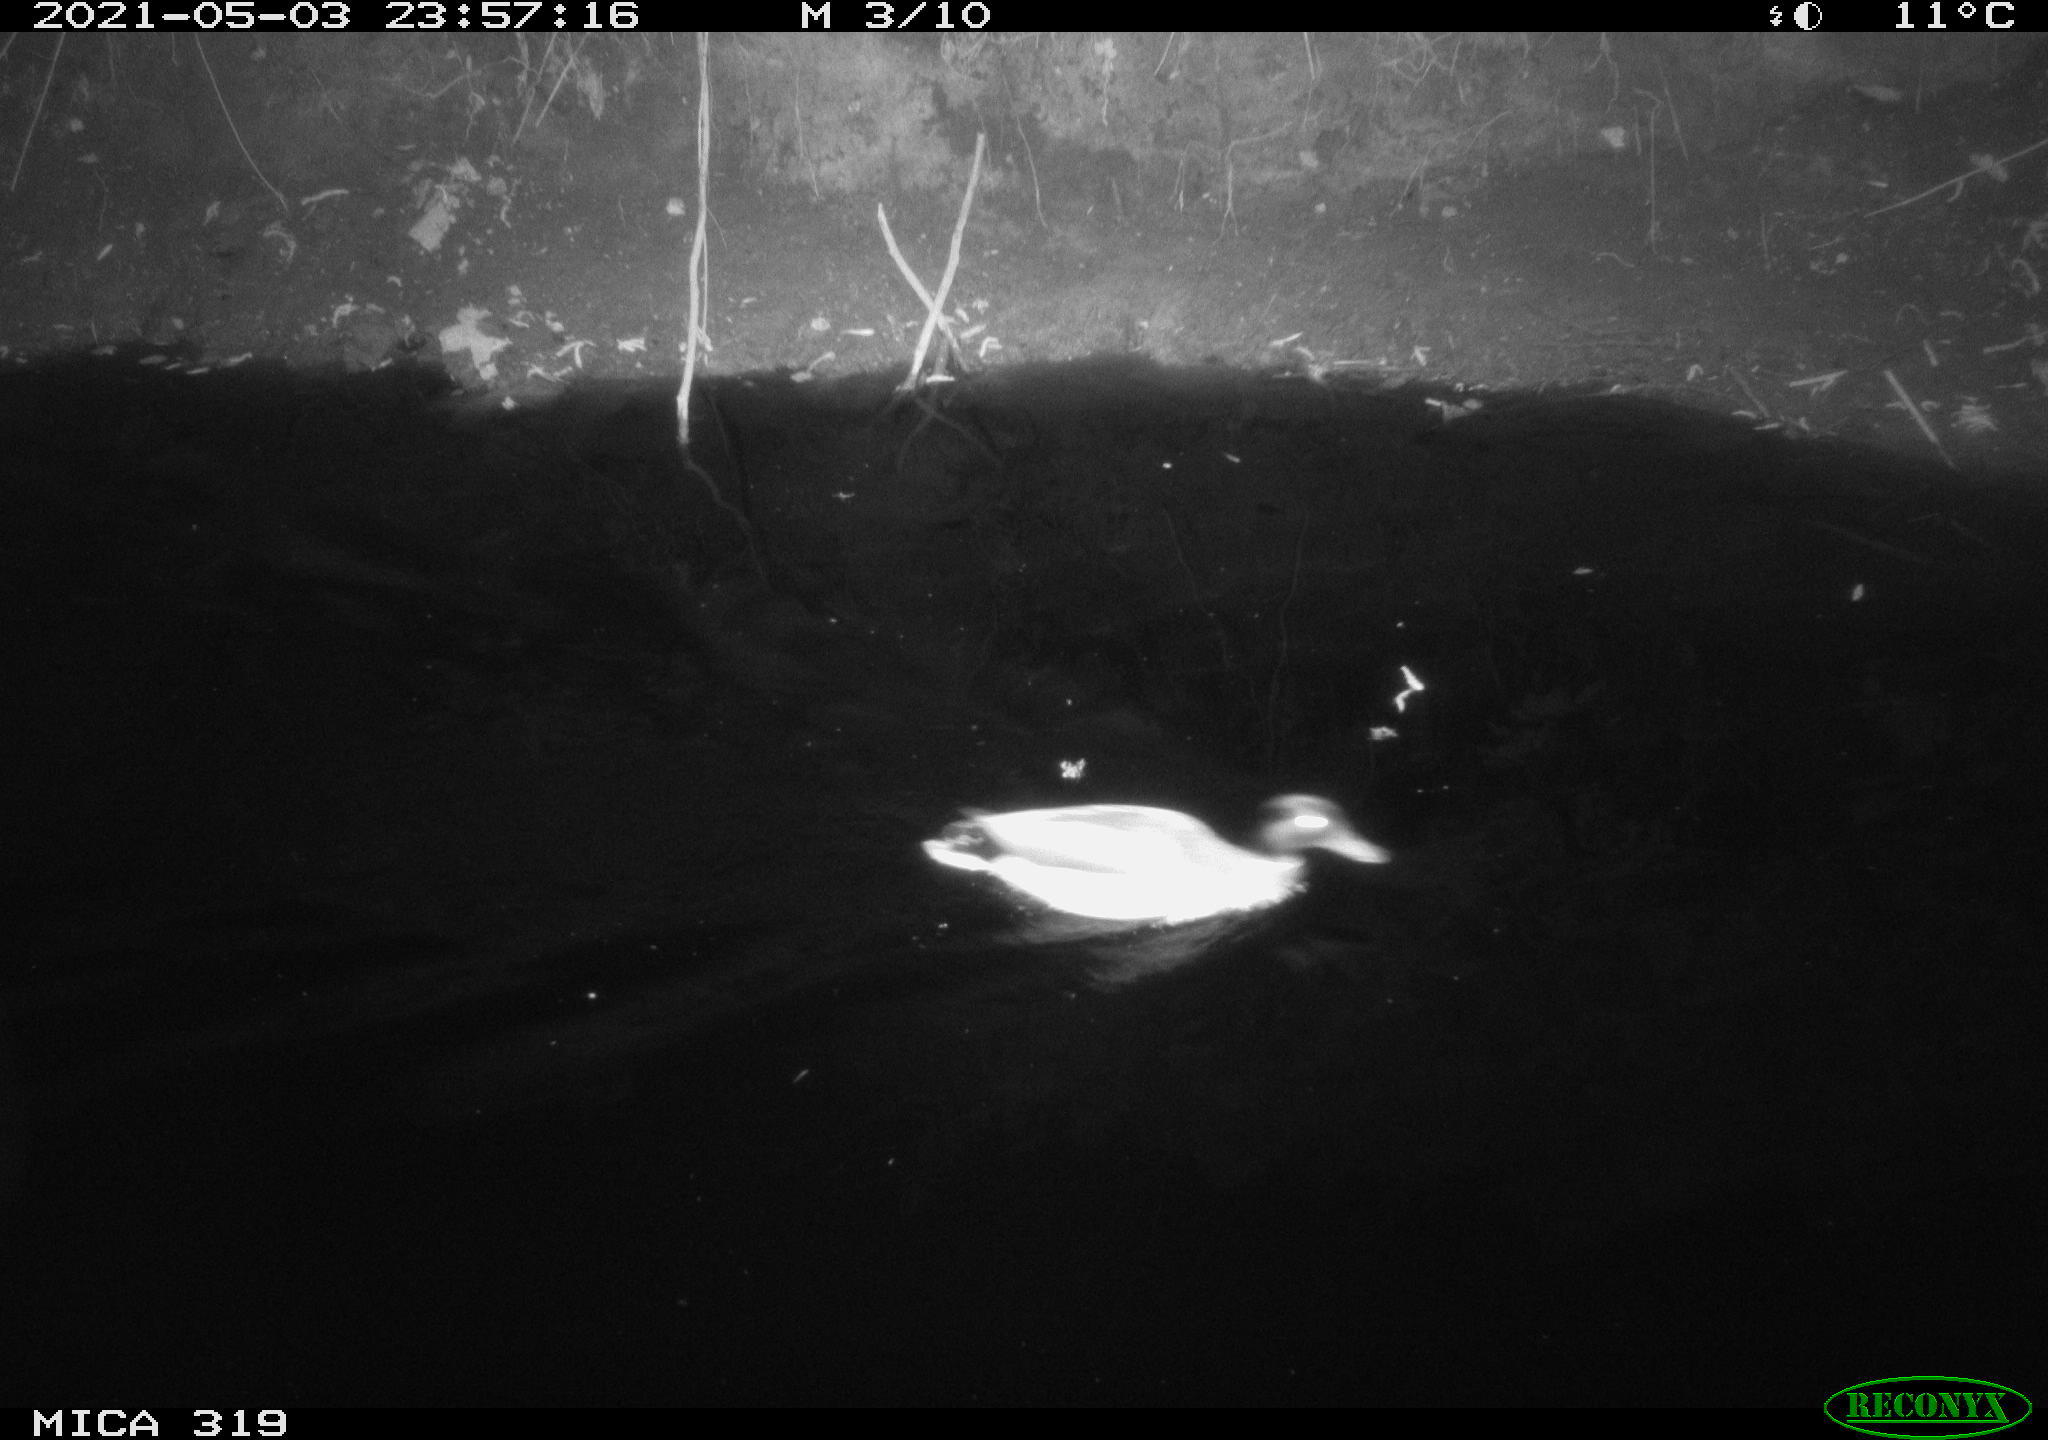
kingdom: Animalia
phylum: Chordata
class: Aves
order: Anseriformes
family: Anatidae
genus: Anas
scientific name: Anas platyrhynchos
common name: Mallard
